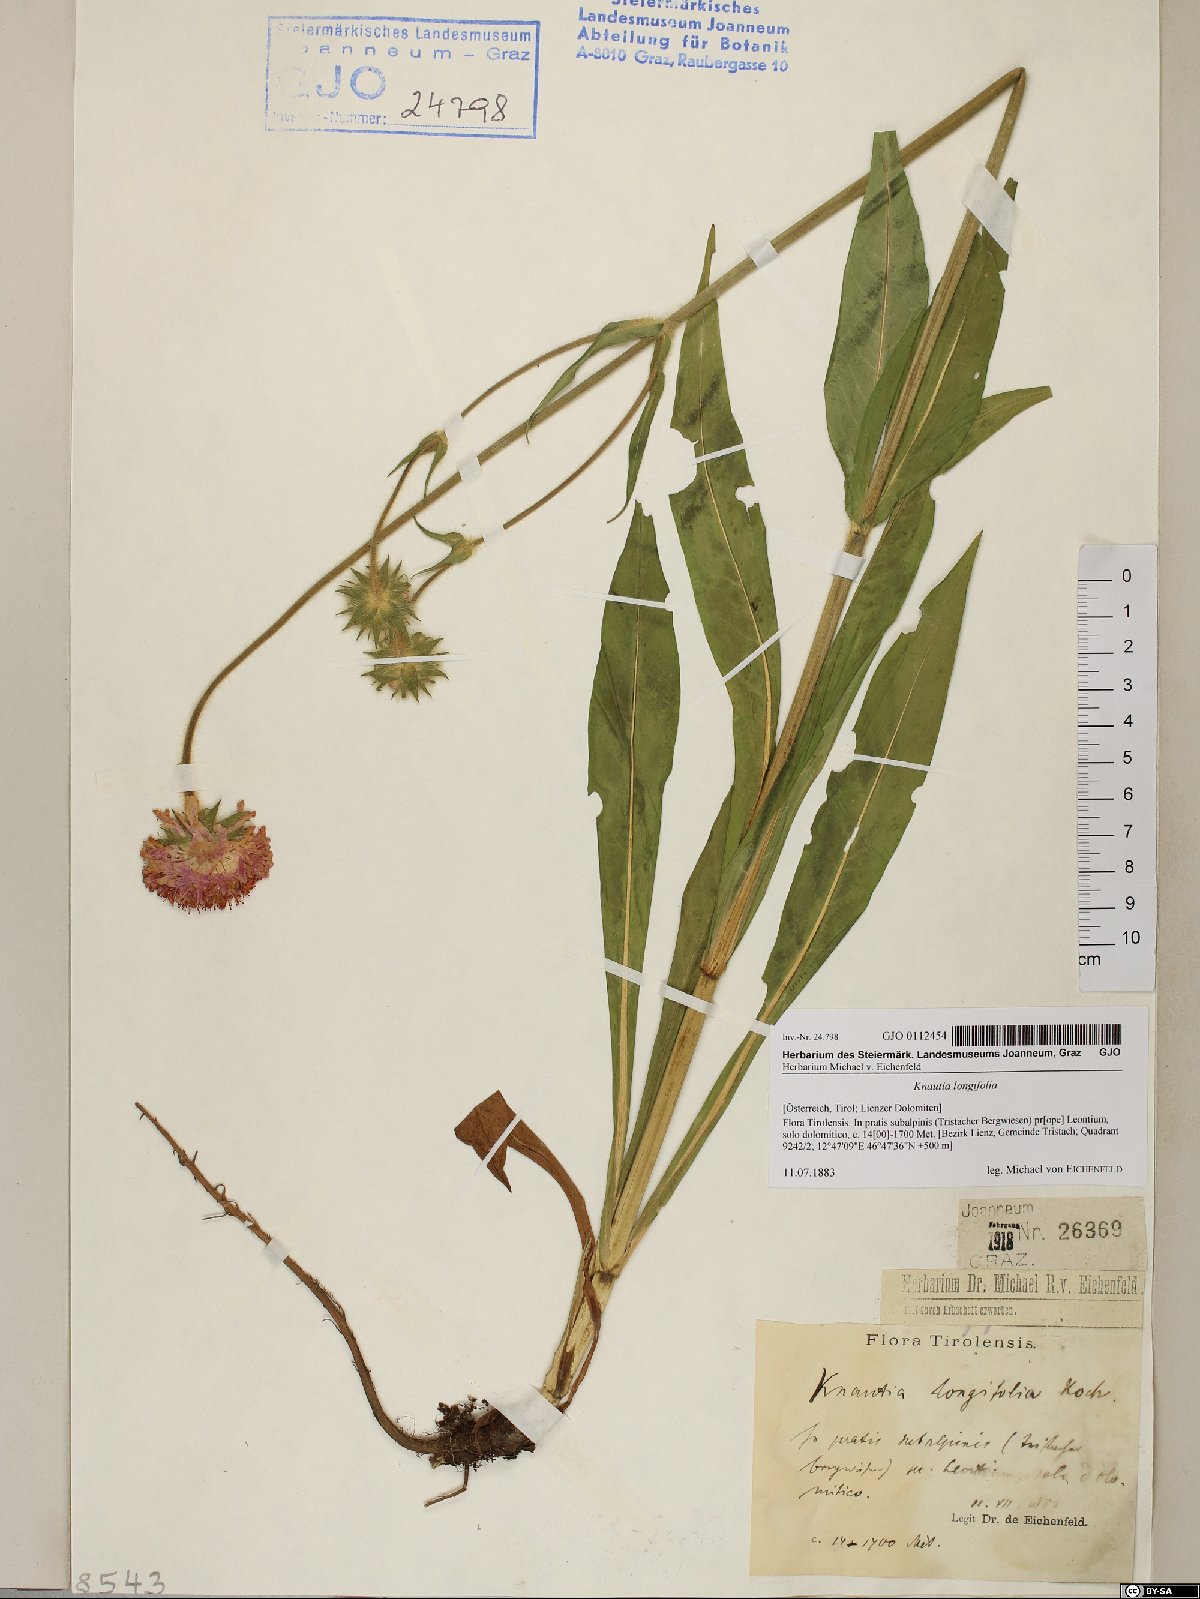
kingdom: Plantae
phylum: Tracheophyta
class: Magnoliopsida
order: Dipsacales
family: Caprifoliaceae
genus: Knautia
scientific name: Knautia longifolia
